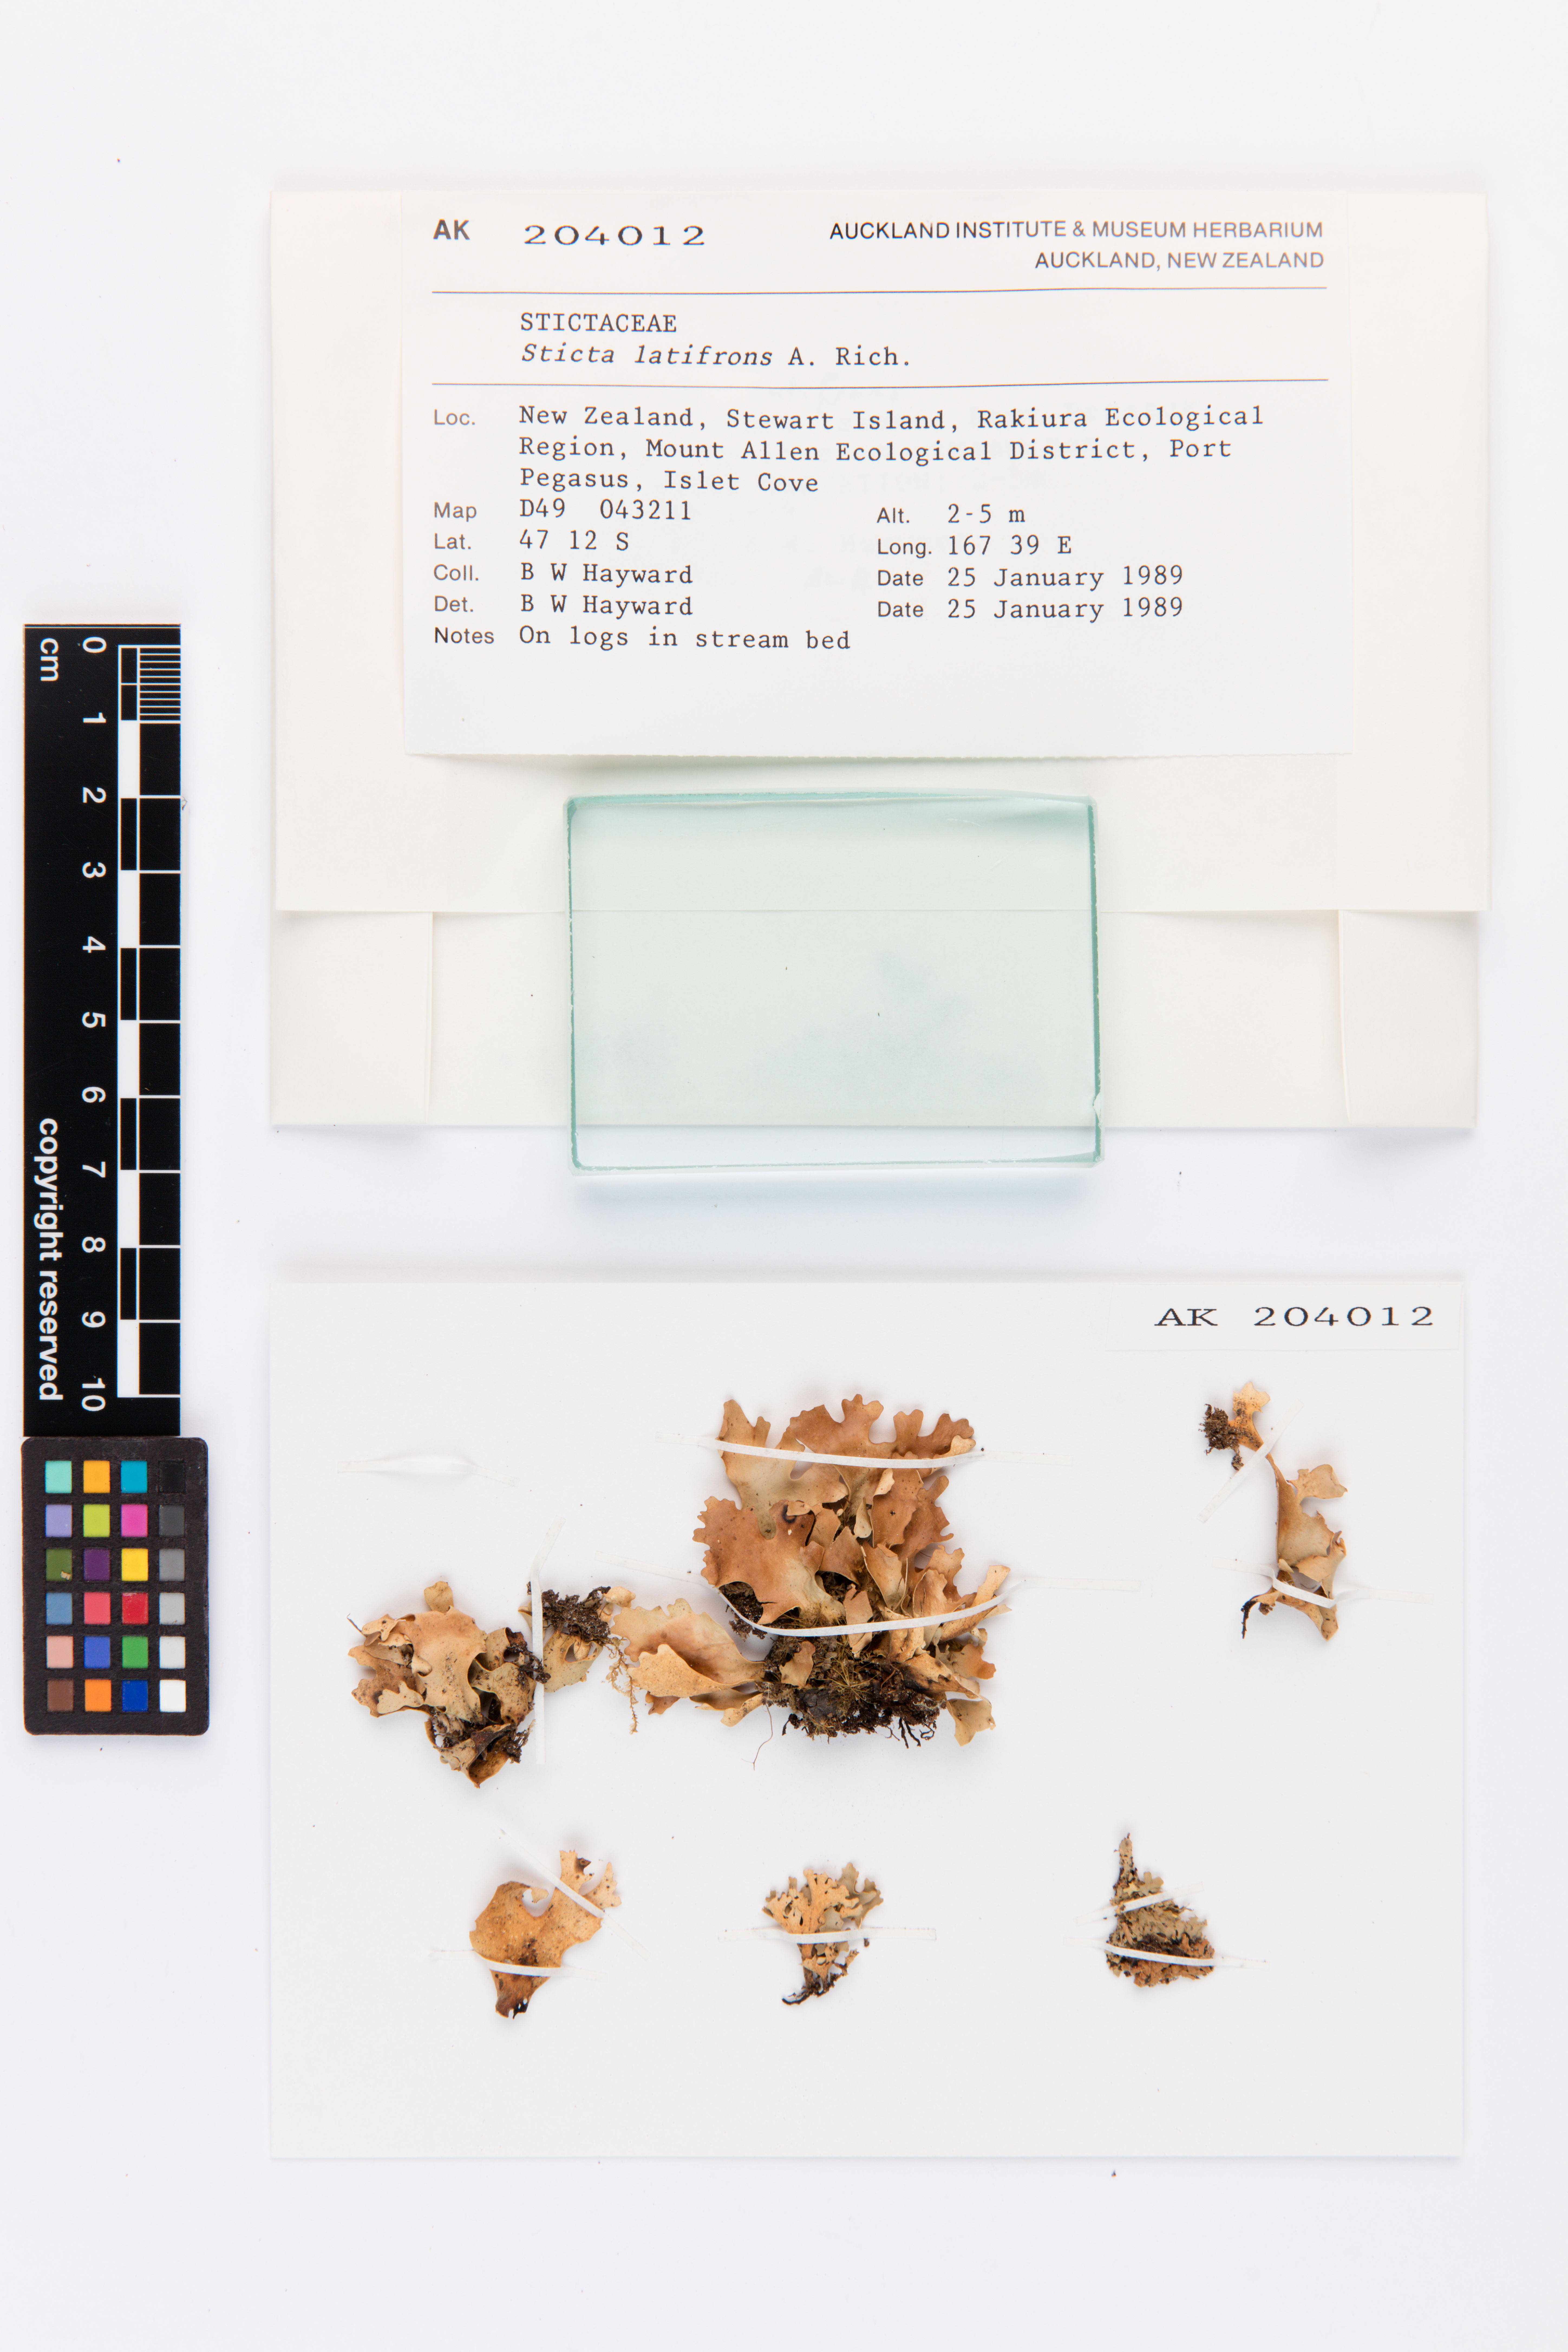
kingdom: Fungi
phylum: Ascomycota
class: Lecanoromycetes
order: Peltigerales
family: Lobariaceae
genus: Sticta
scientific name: Sticta latifrons
